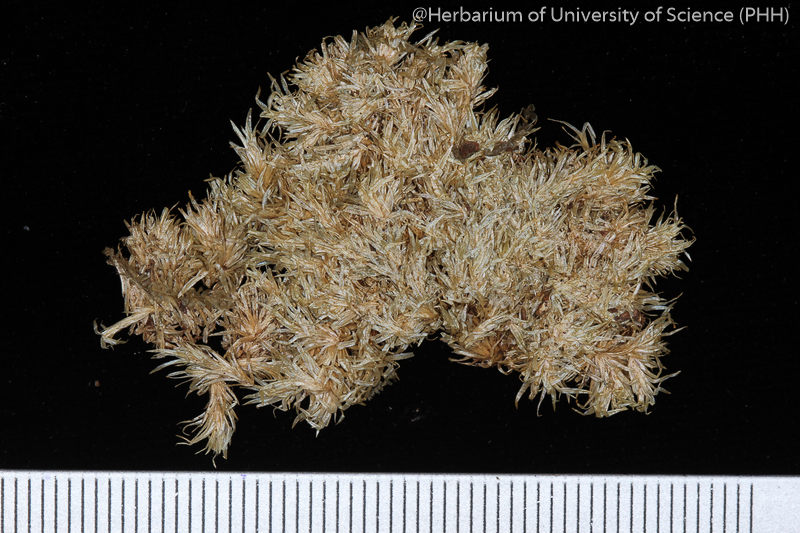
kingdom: Plantae
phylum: Bryophyta
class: Bryopsida
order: Dicranales
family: Calymperaceae
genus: Leucophanes
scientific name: Leucophanes octoblepharoides
